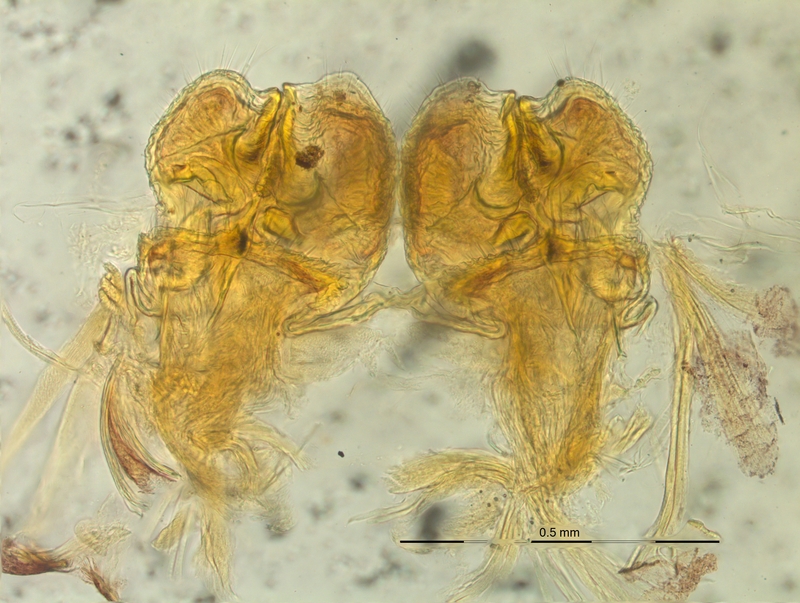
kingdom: Animalia
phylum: Arthropoda
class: Diplopoda
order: Chordeumatida
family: Craspedosomatidae
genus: Craspedosoma
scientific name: Craspedosoma alemannicum
